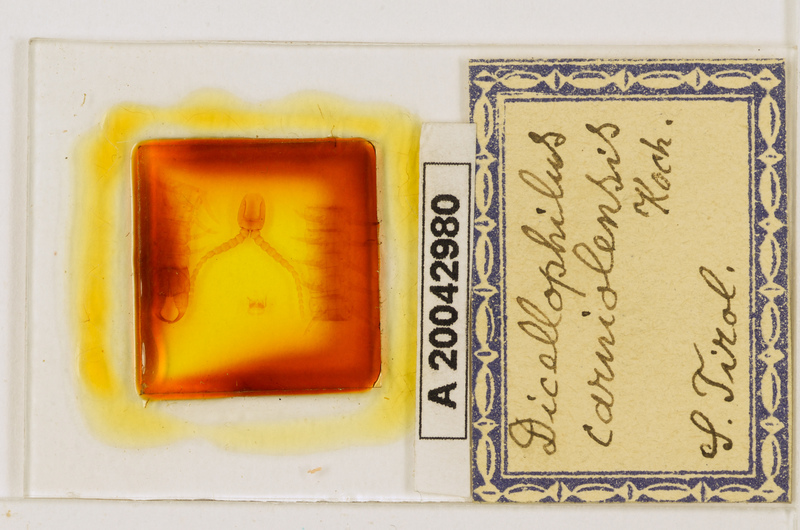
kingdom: Animalia
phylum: Arthropoda
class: Chilopoda
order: Geophilomorpha
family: Mecistocephalidae
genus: Dicellophilus
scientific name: Dicellophilus carniolensis
